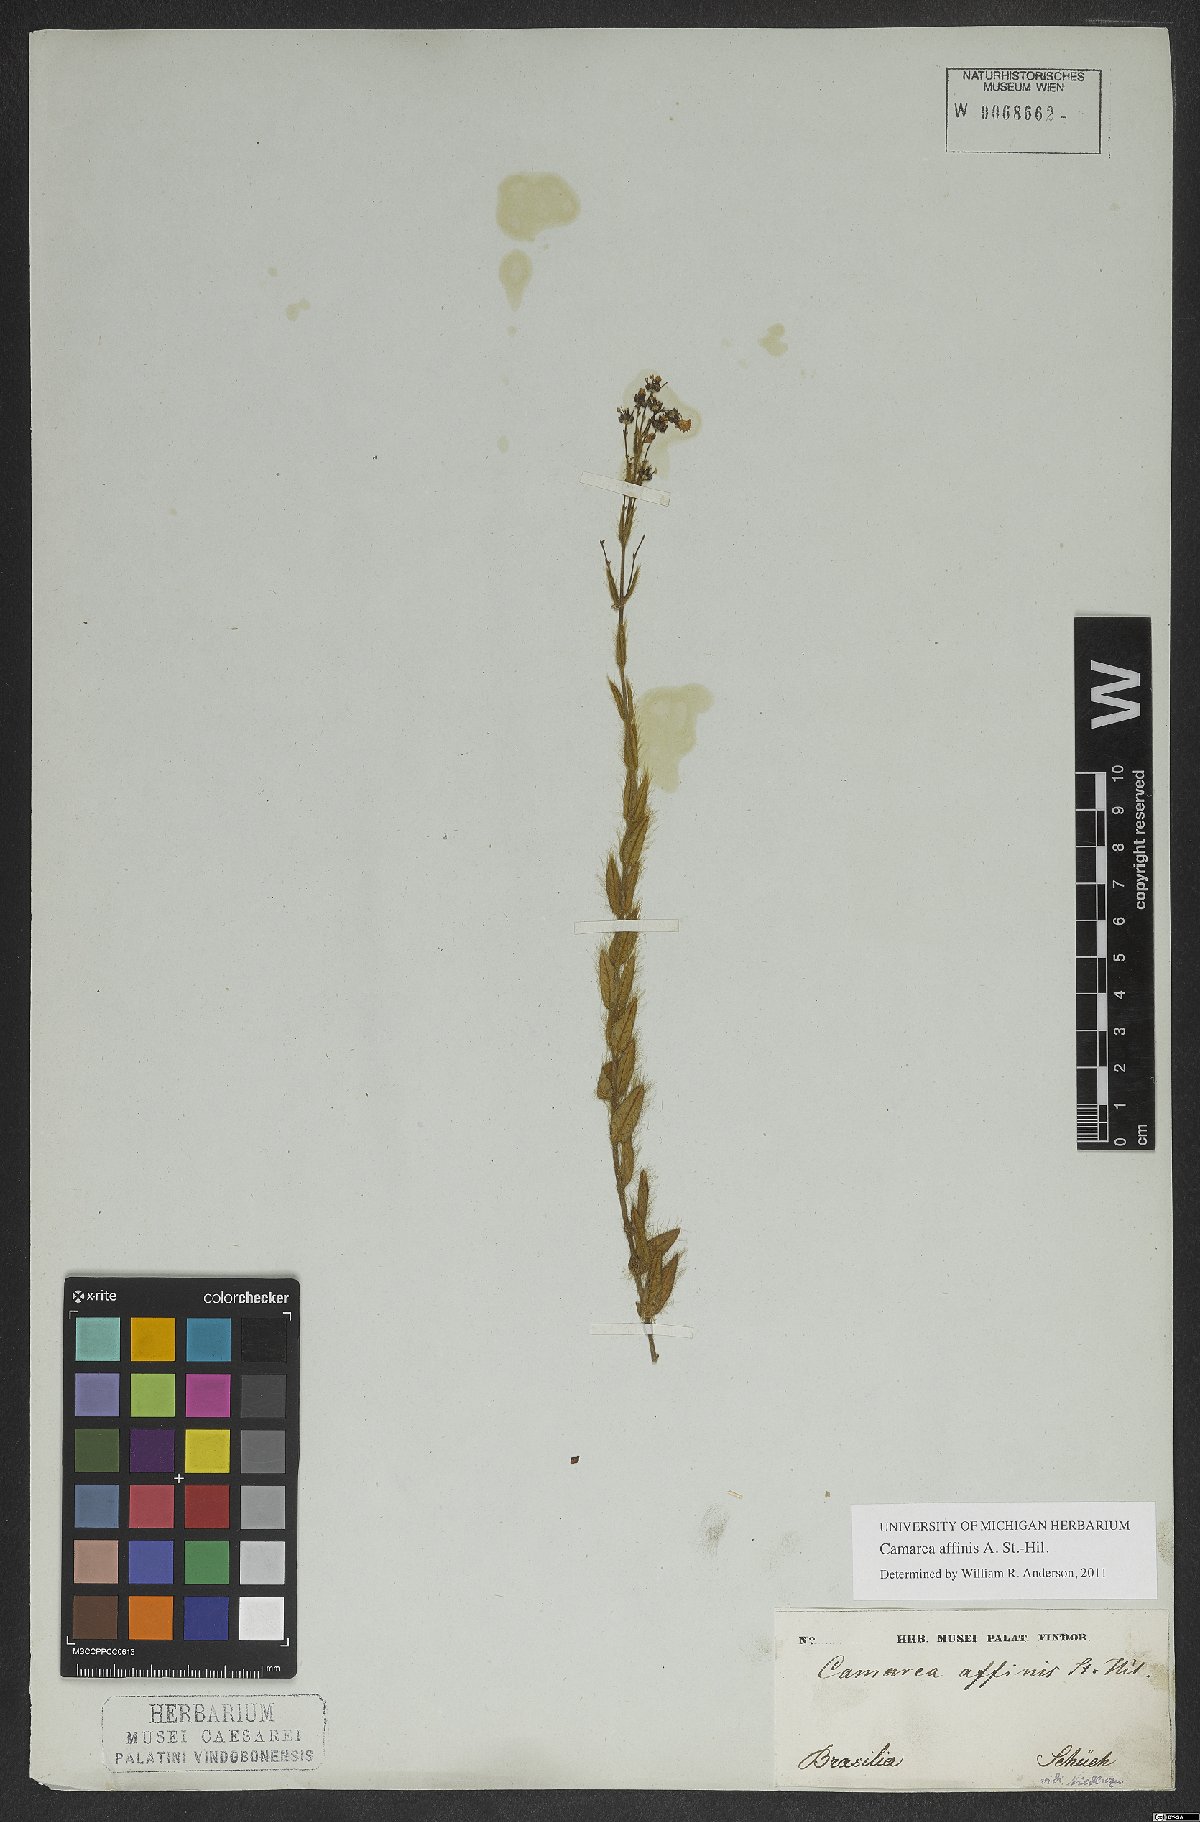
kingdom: Plantae
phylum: Tracheophyta
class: Magnoliopsida
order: Malpighiales
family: Malpighiaceae
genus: Camarea
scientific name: Camarea affinis
